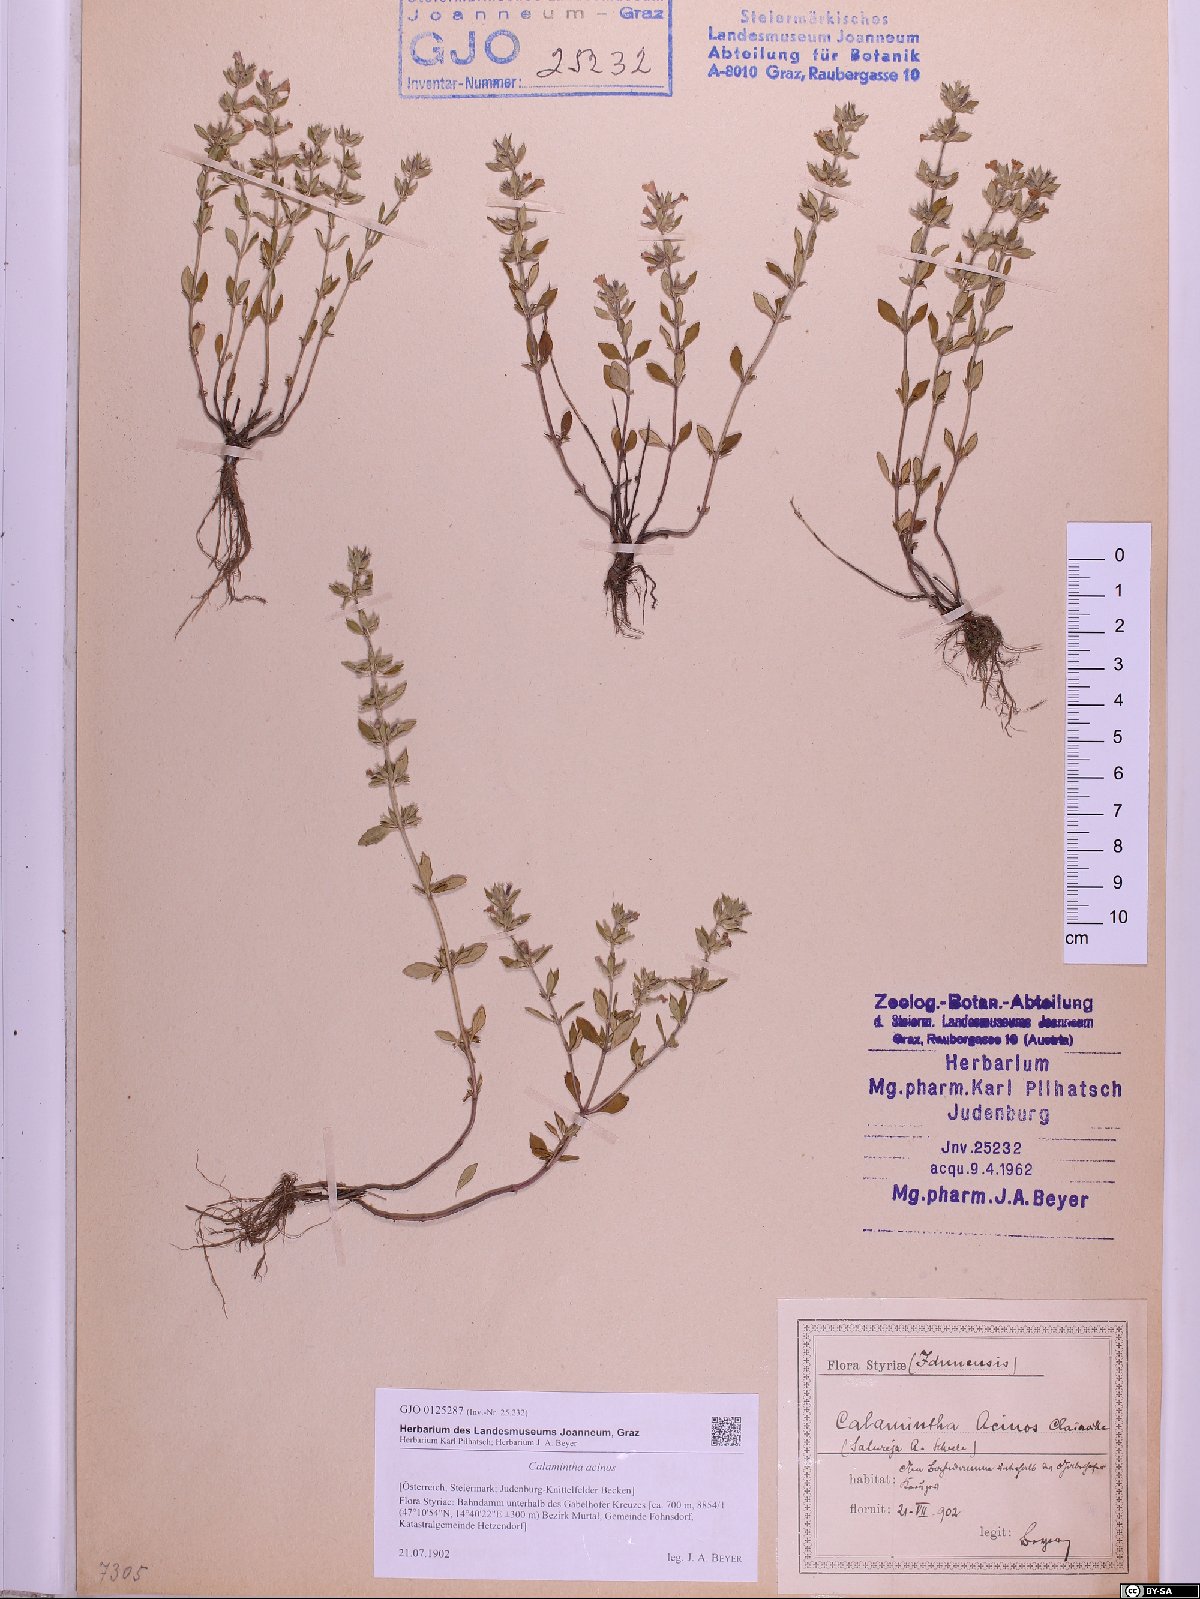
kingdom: Plantae
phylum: Tracheophyta
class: Magnoliopsida
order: Lamiales
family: Lamiaceae
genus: Clinopodium
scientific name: Clinopodium acinos
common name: Basil thyme
